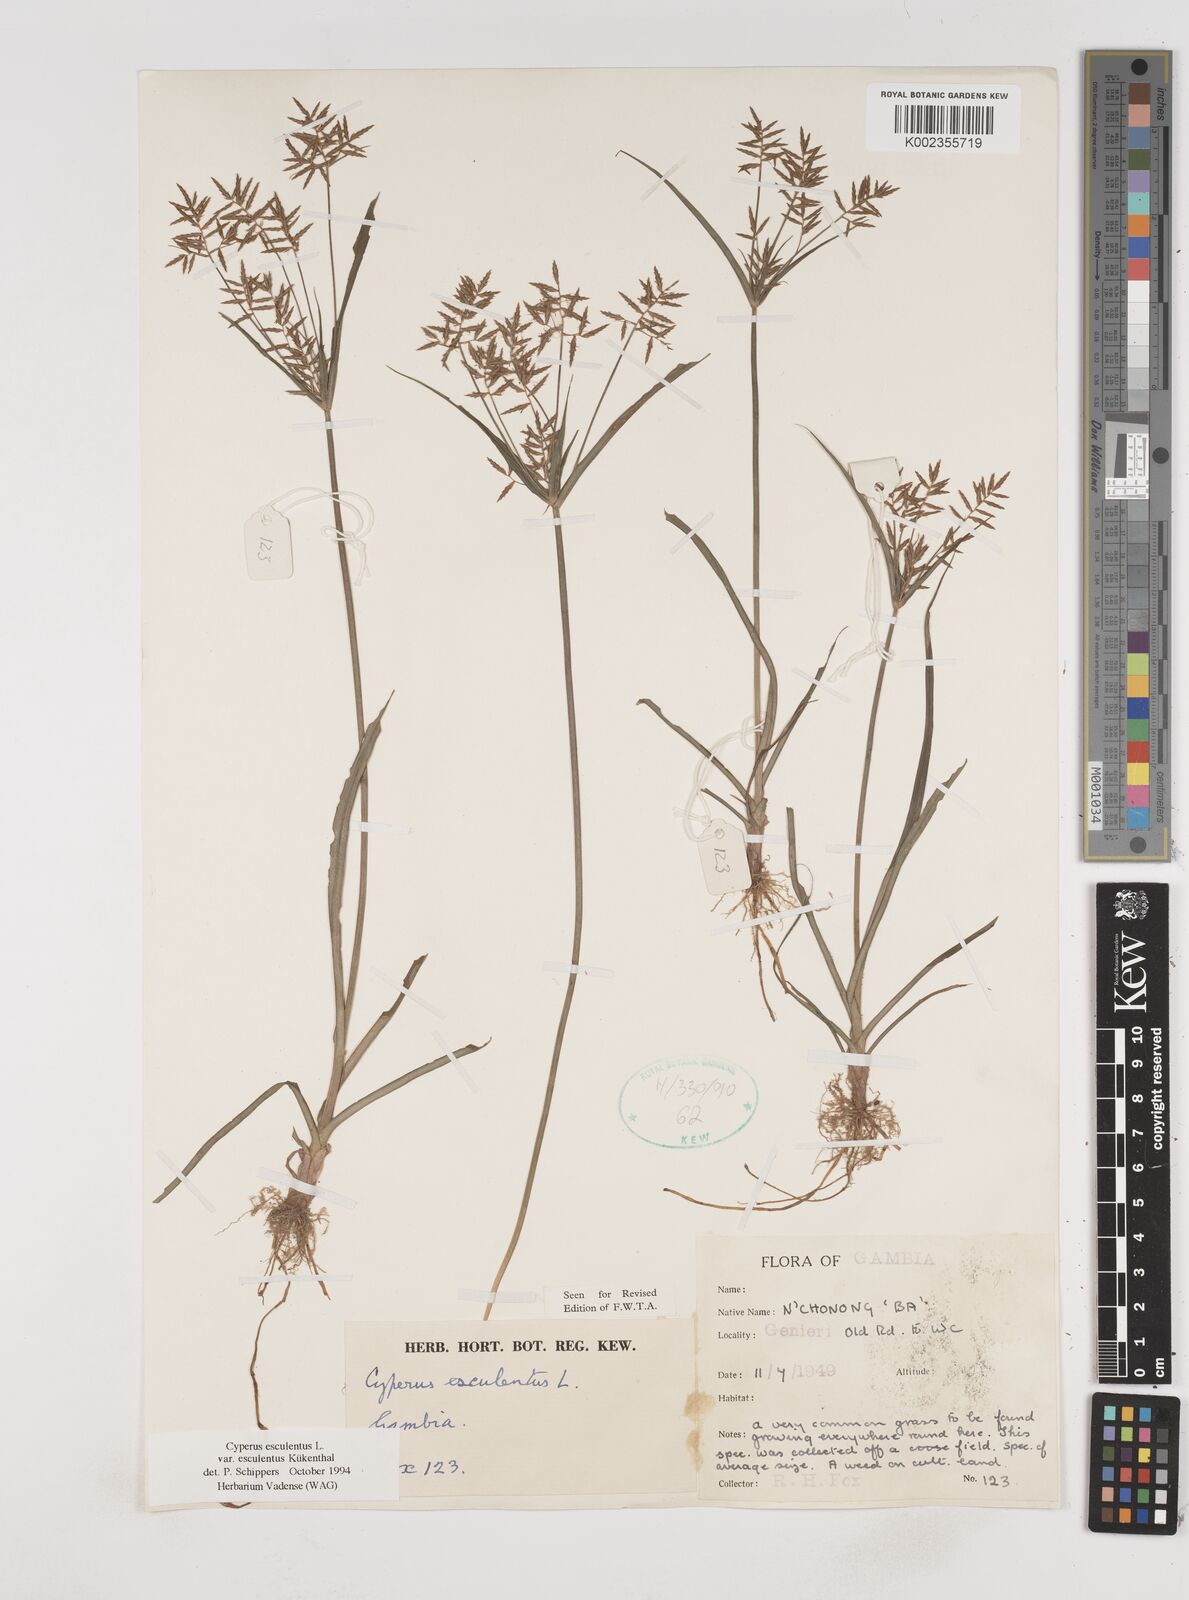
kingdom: Plantae
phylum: Tracheophyta
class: Liliopsida
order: Poales
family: Cyperaceae
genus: Cyperus
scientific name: Cyperus esculentus
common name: Yellow nutsedge
